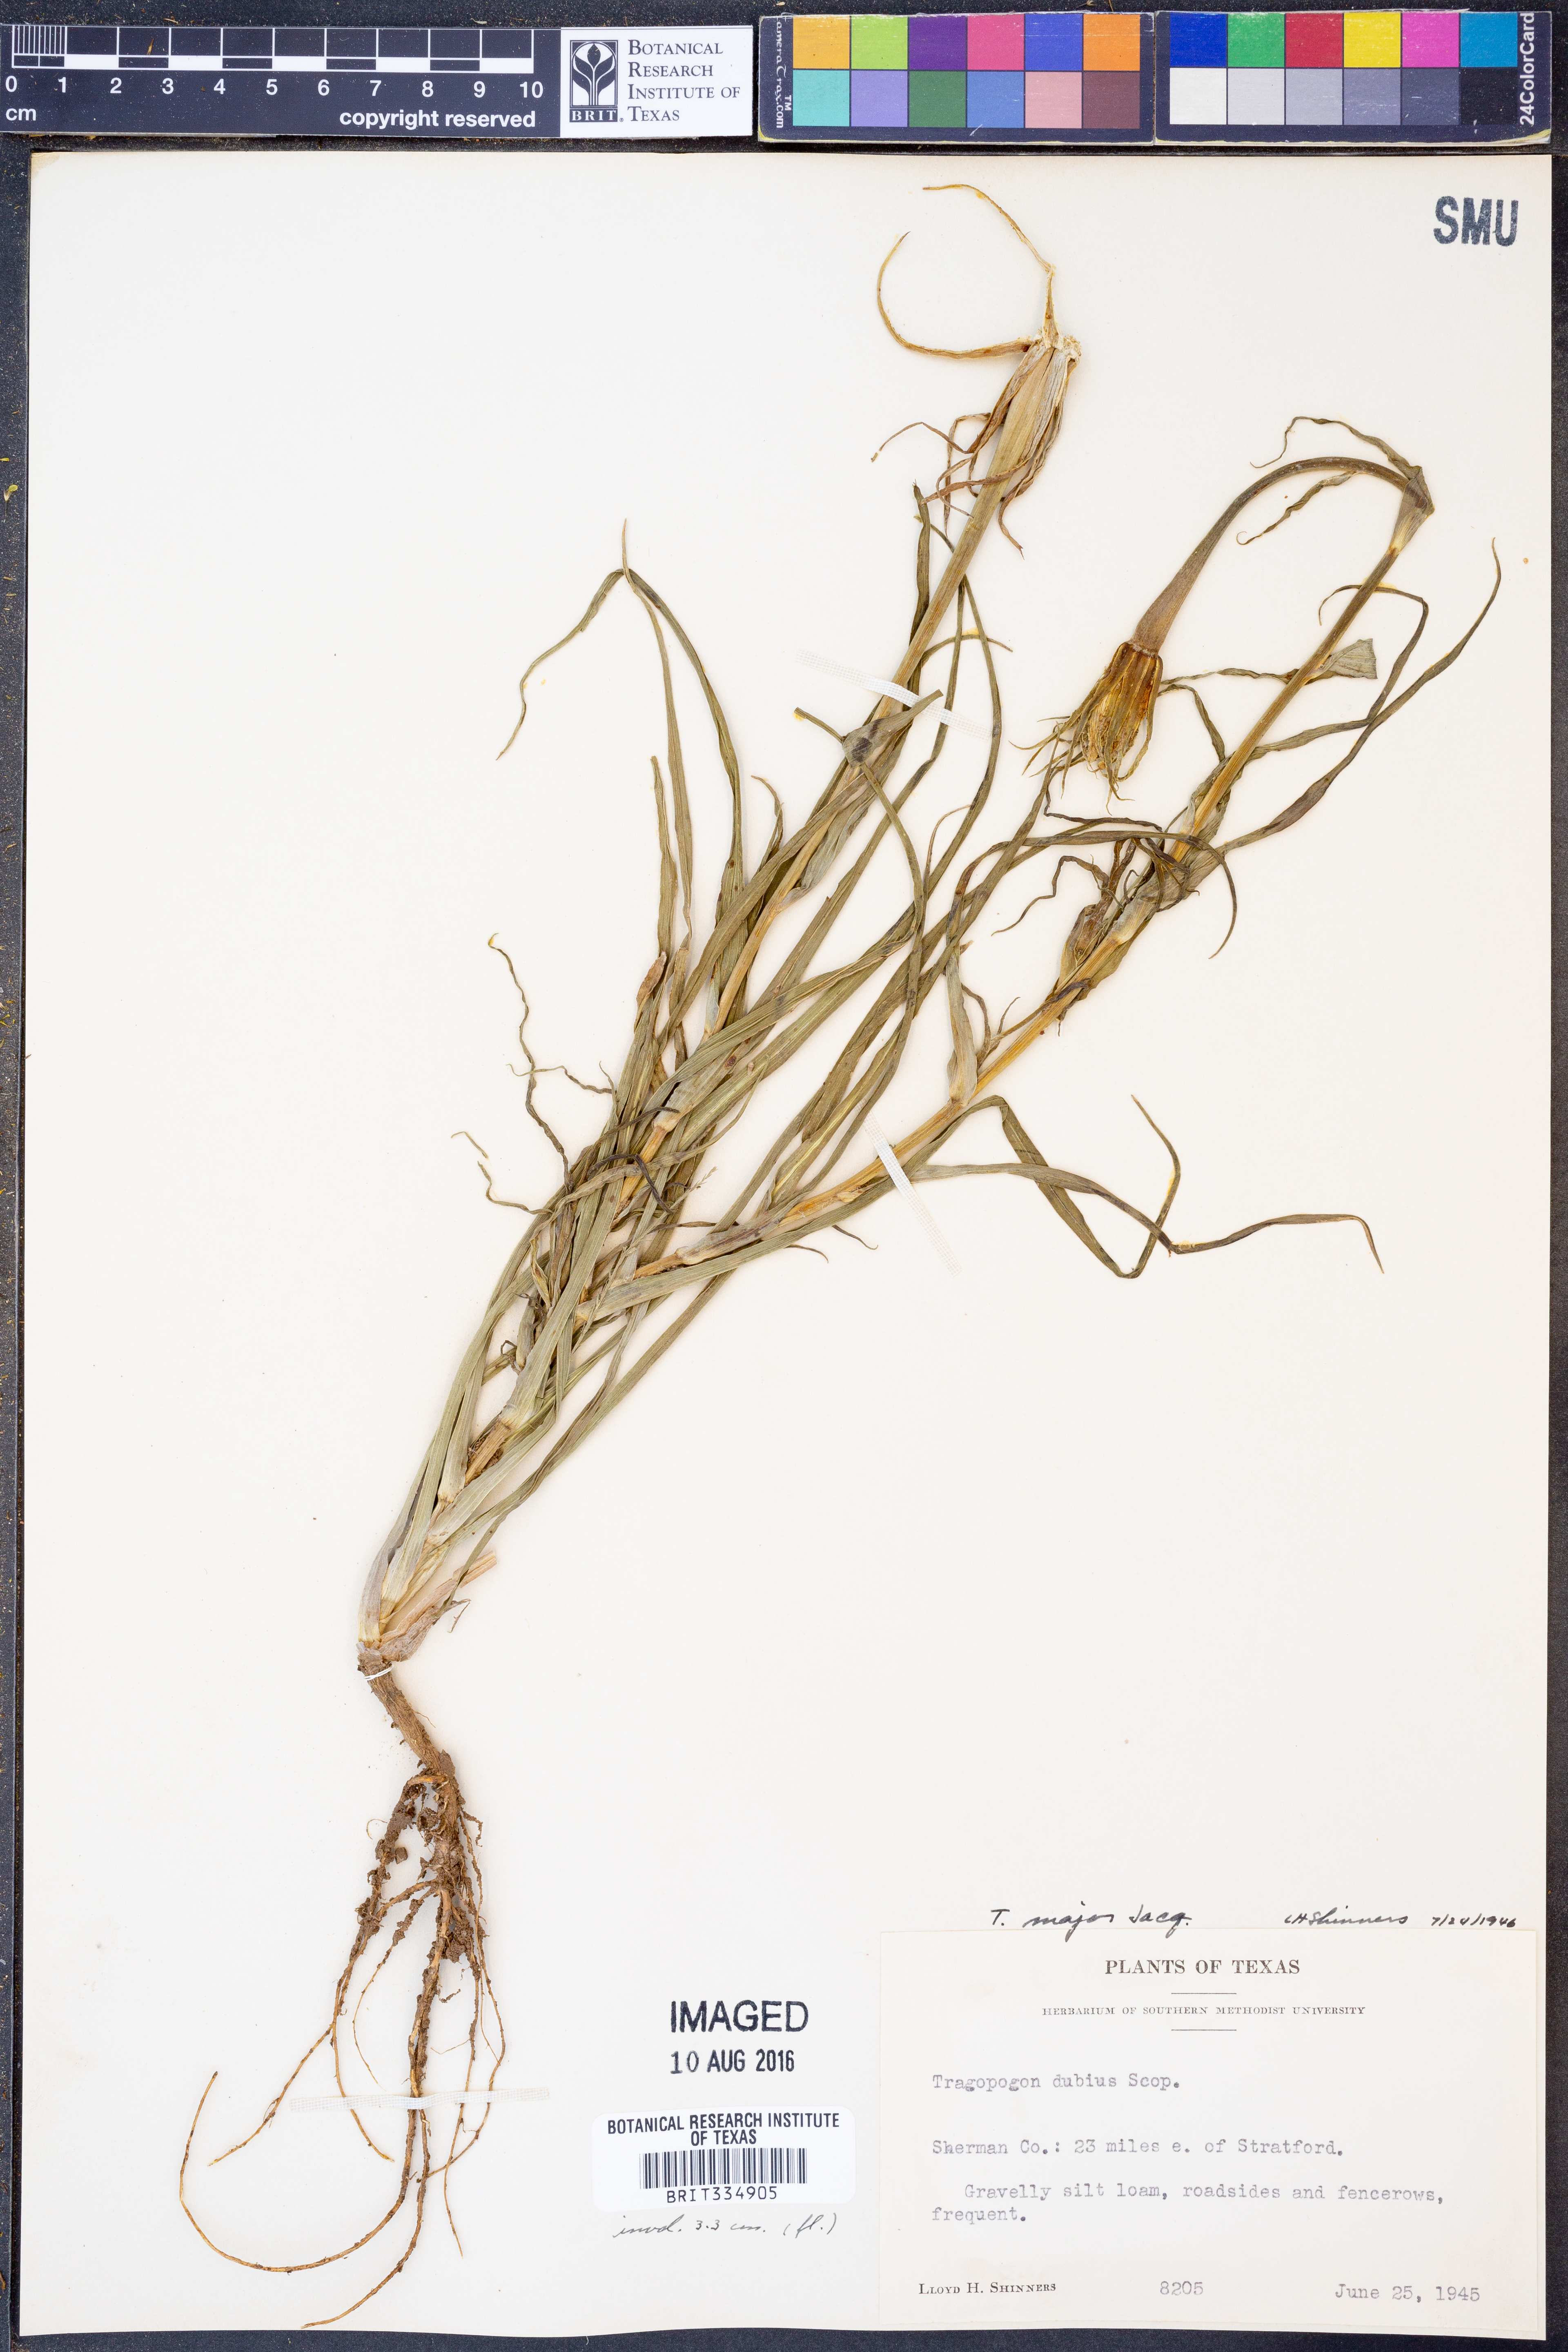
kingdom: Plantae
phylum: Tracheophyta
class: Magnoliopsida
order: Asterales
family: Asteraceae
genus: Tragopogon
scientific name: Tragopogon dubius
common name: Yellow salsify
